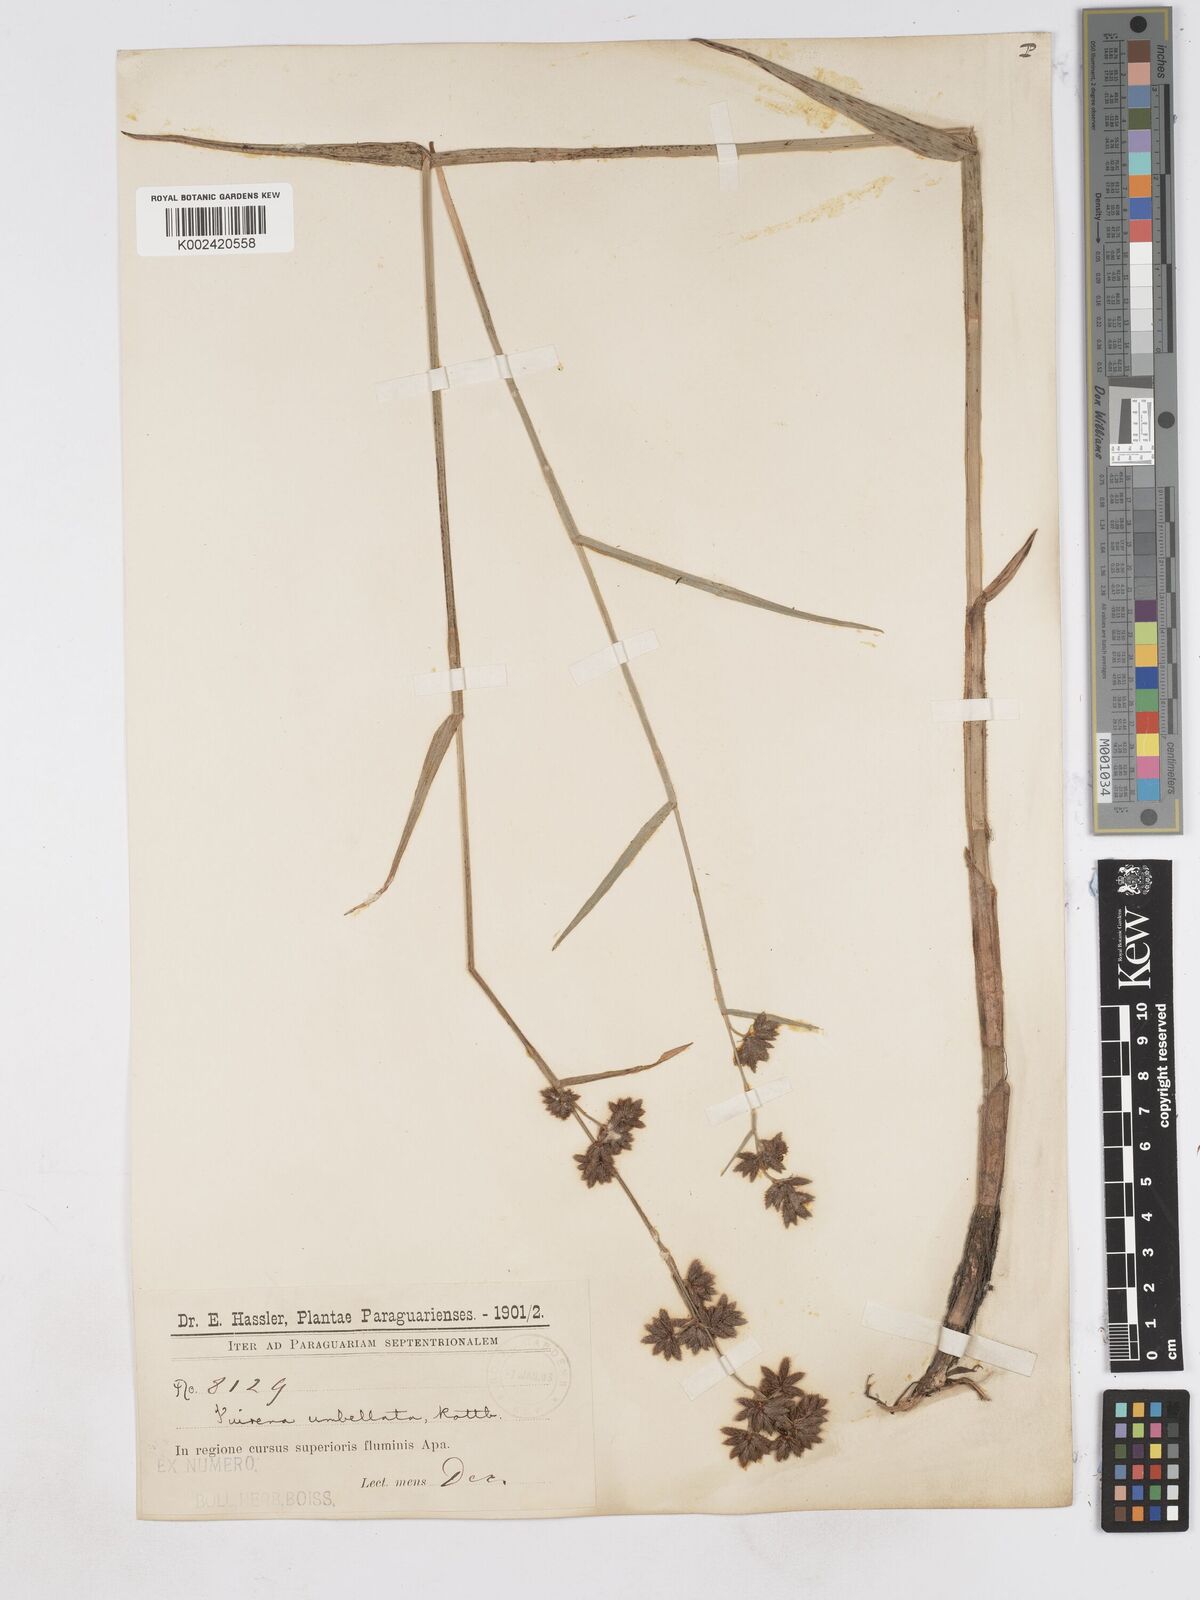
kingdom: Plantae
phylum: Tracheophyta
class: Liliopsida
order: Poales
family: Cyperaceae
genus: Fuirena
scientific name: Fuirena umbellata
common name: Yefen
